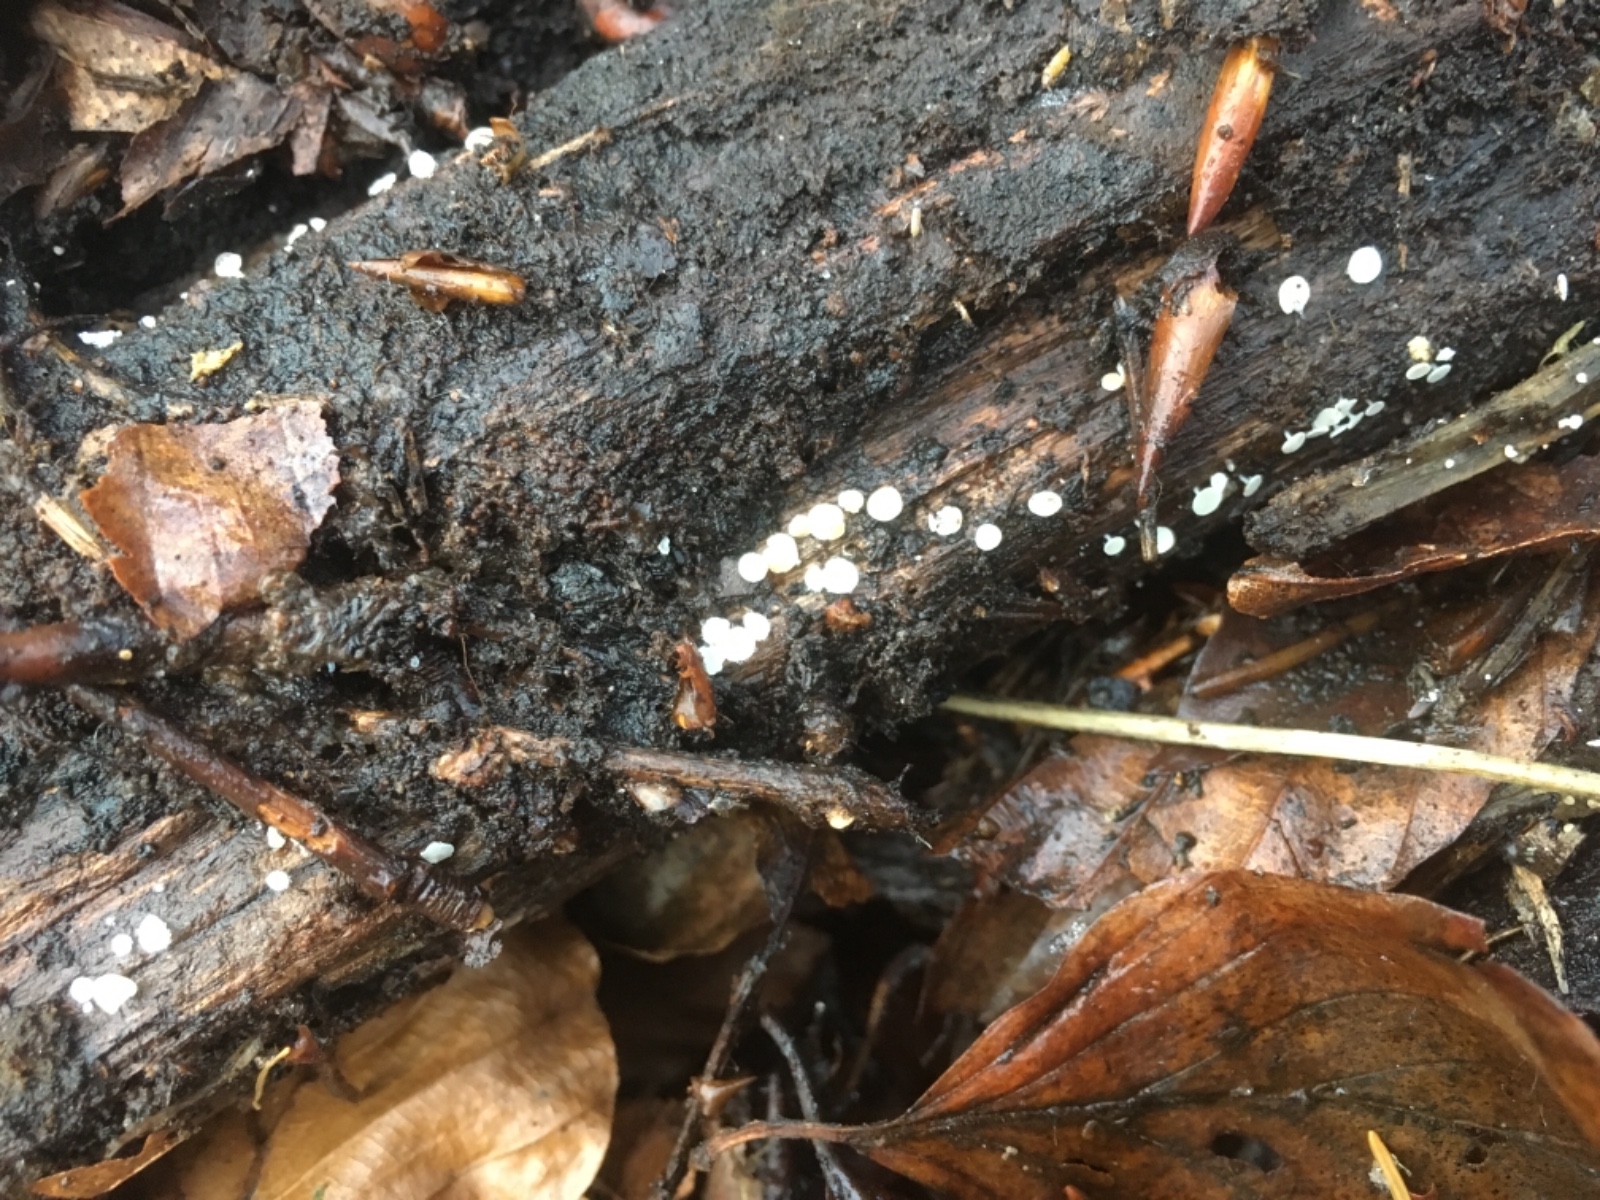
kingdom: Fungi
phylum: Ascomycota
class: Leotiomycetes
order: Helotiales
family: Lachnaceae
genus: Lachnum
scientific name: Lachnum
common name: frynseskive
